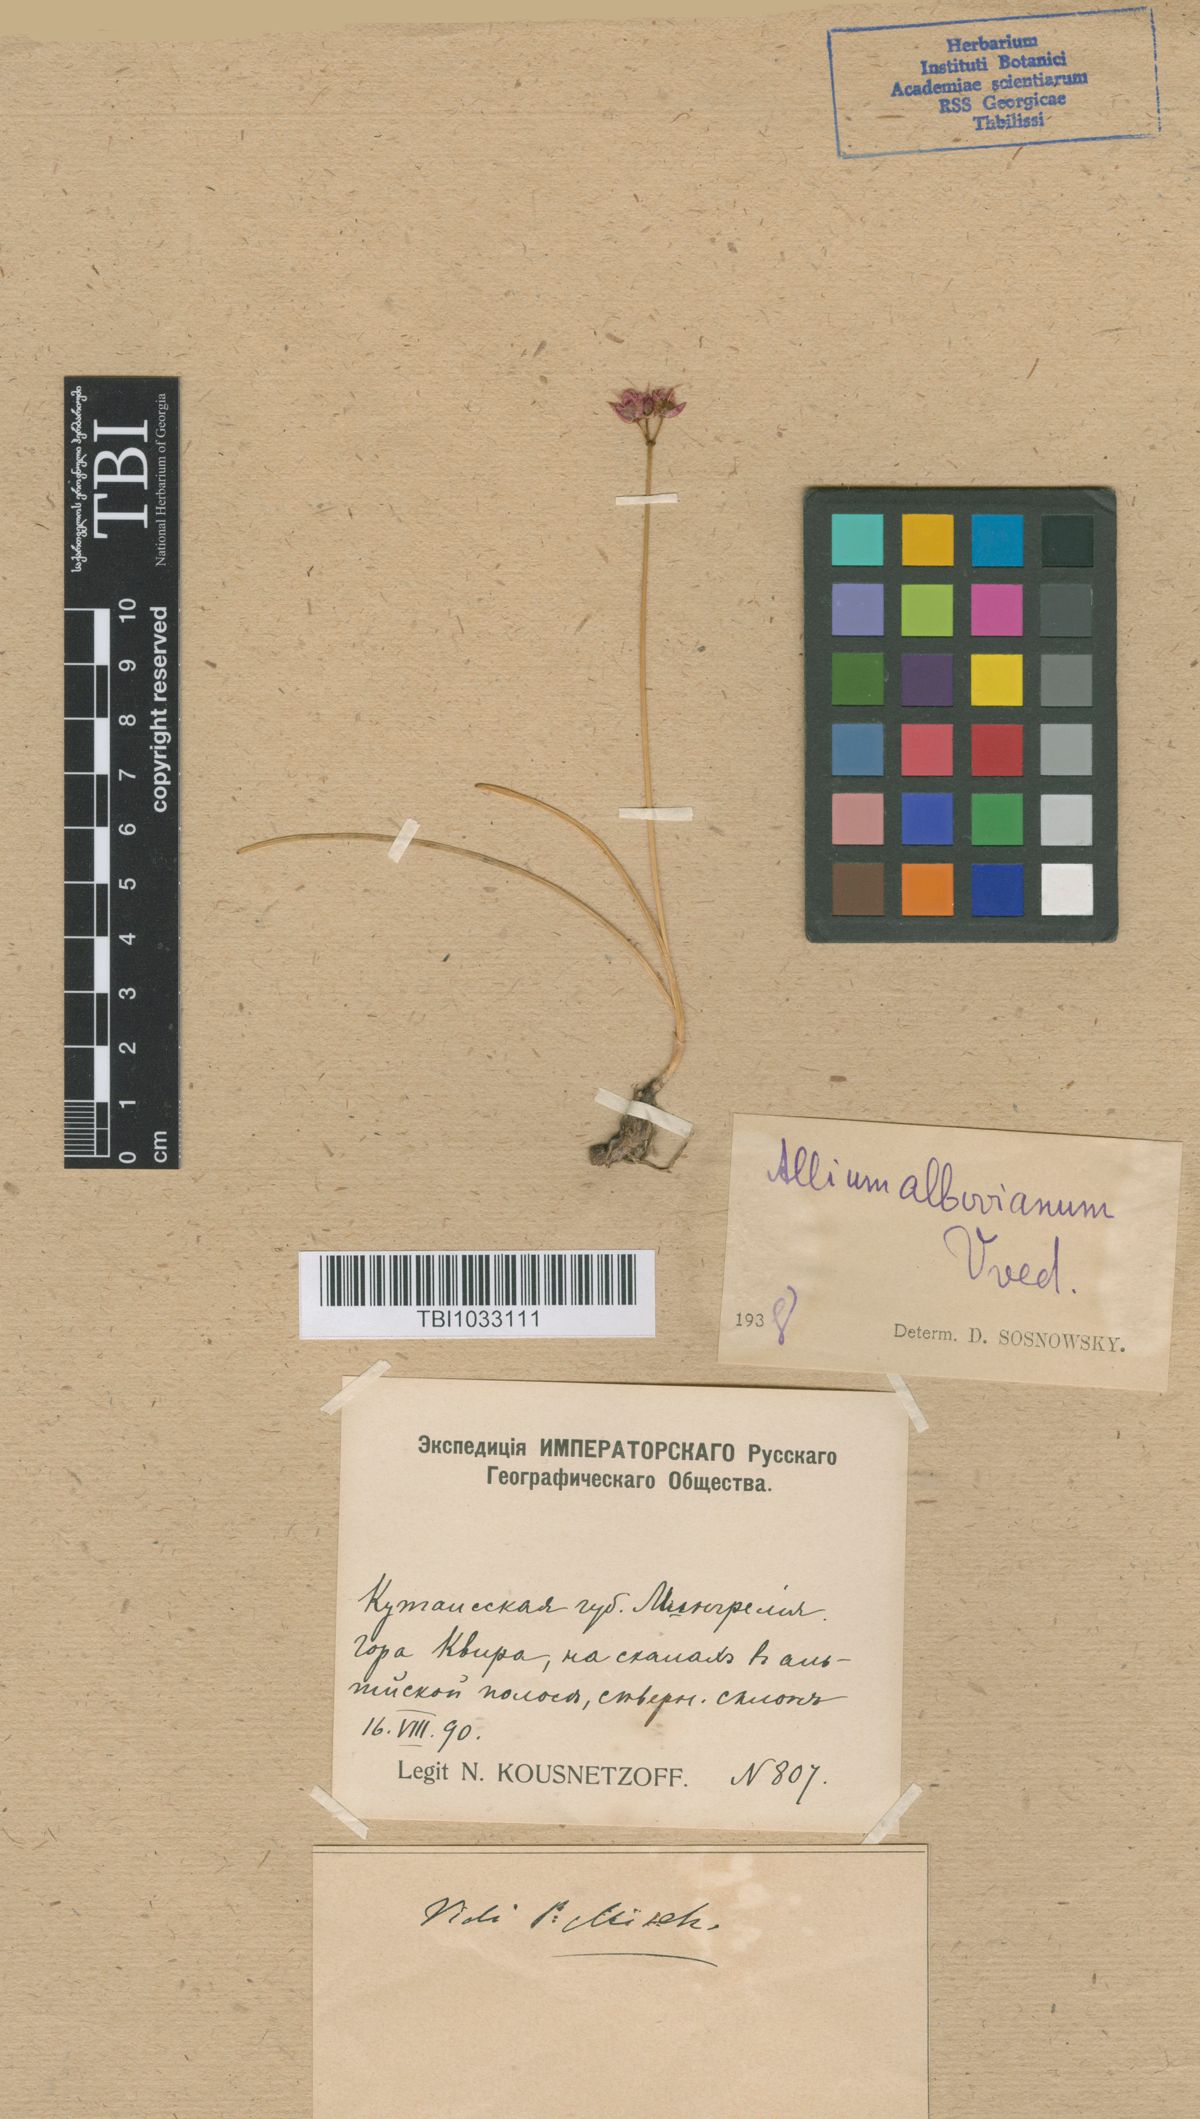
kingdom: Plantae
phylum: Tracheophyta
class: Liliopsida
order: Asparagales
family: Amaryllidaceae
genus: Allium
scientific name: Allium albovianum
